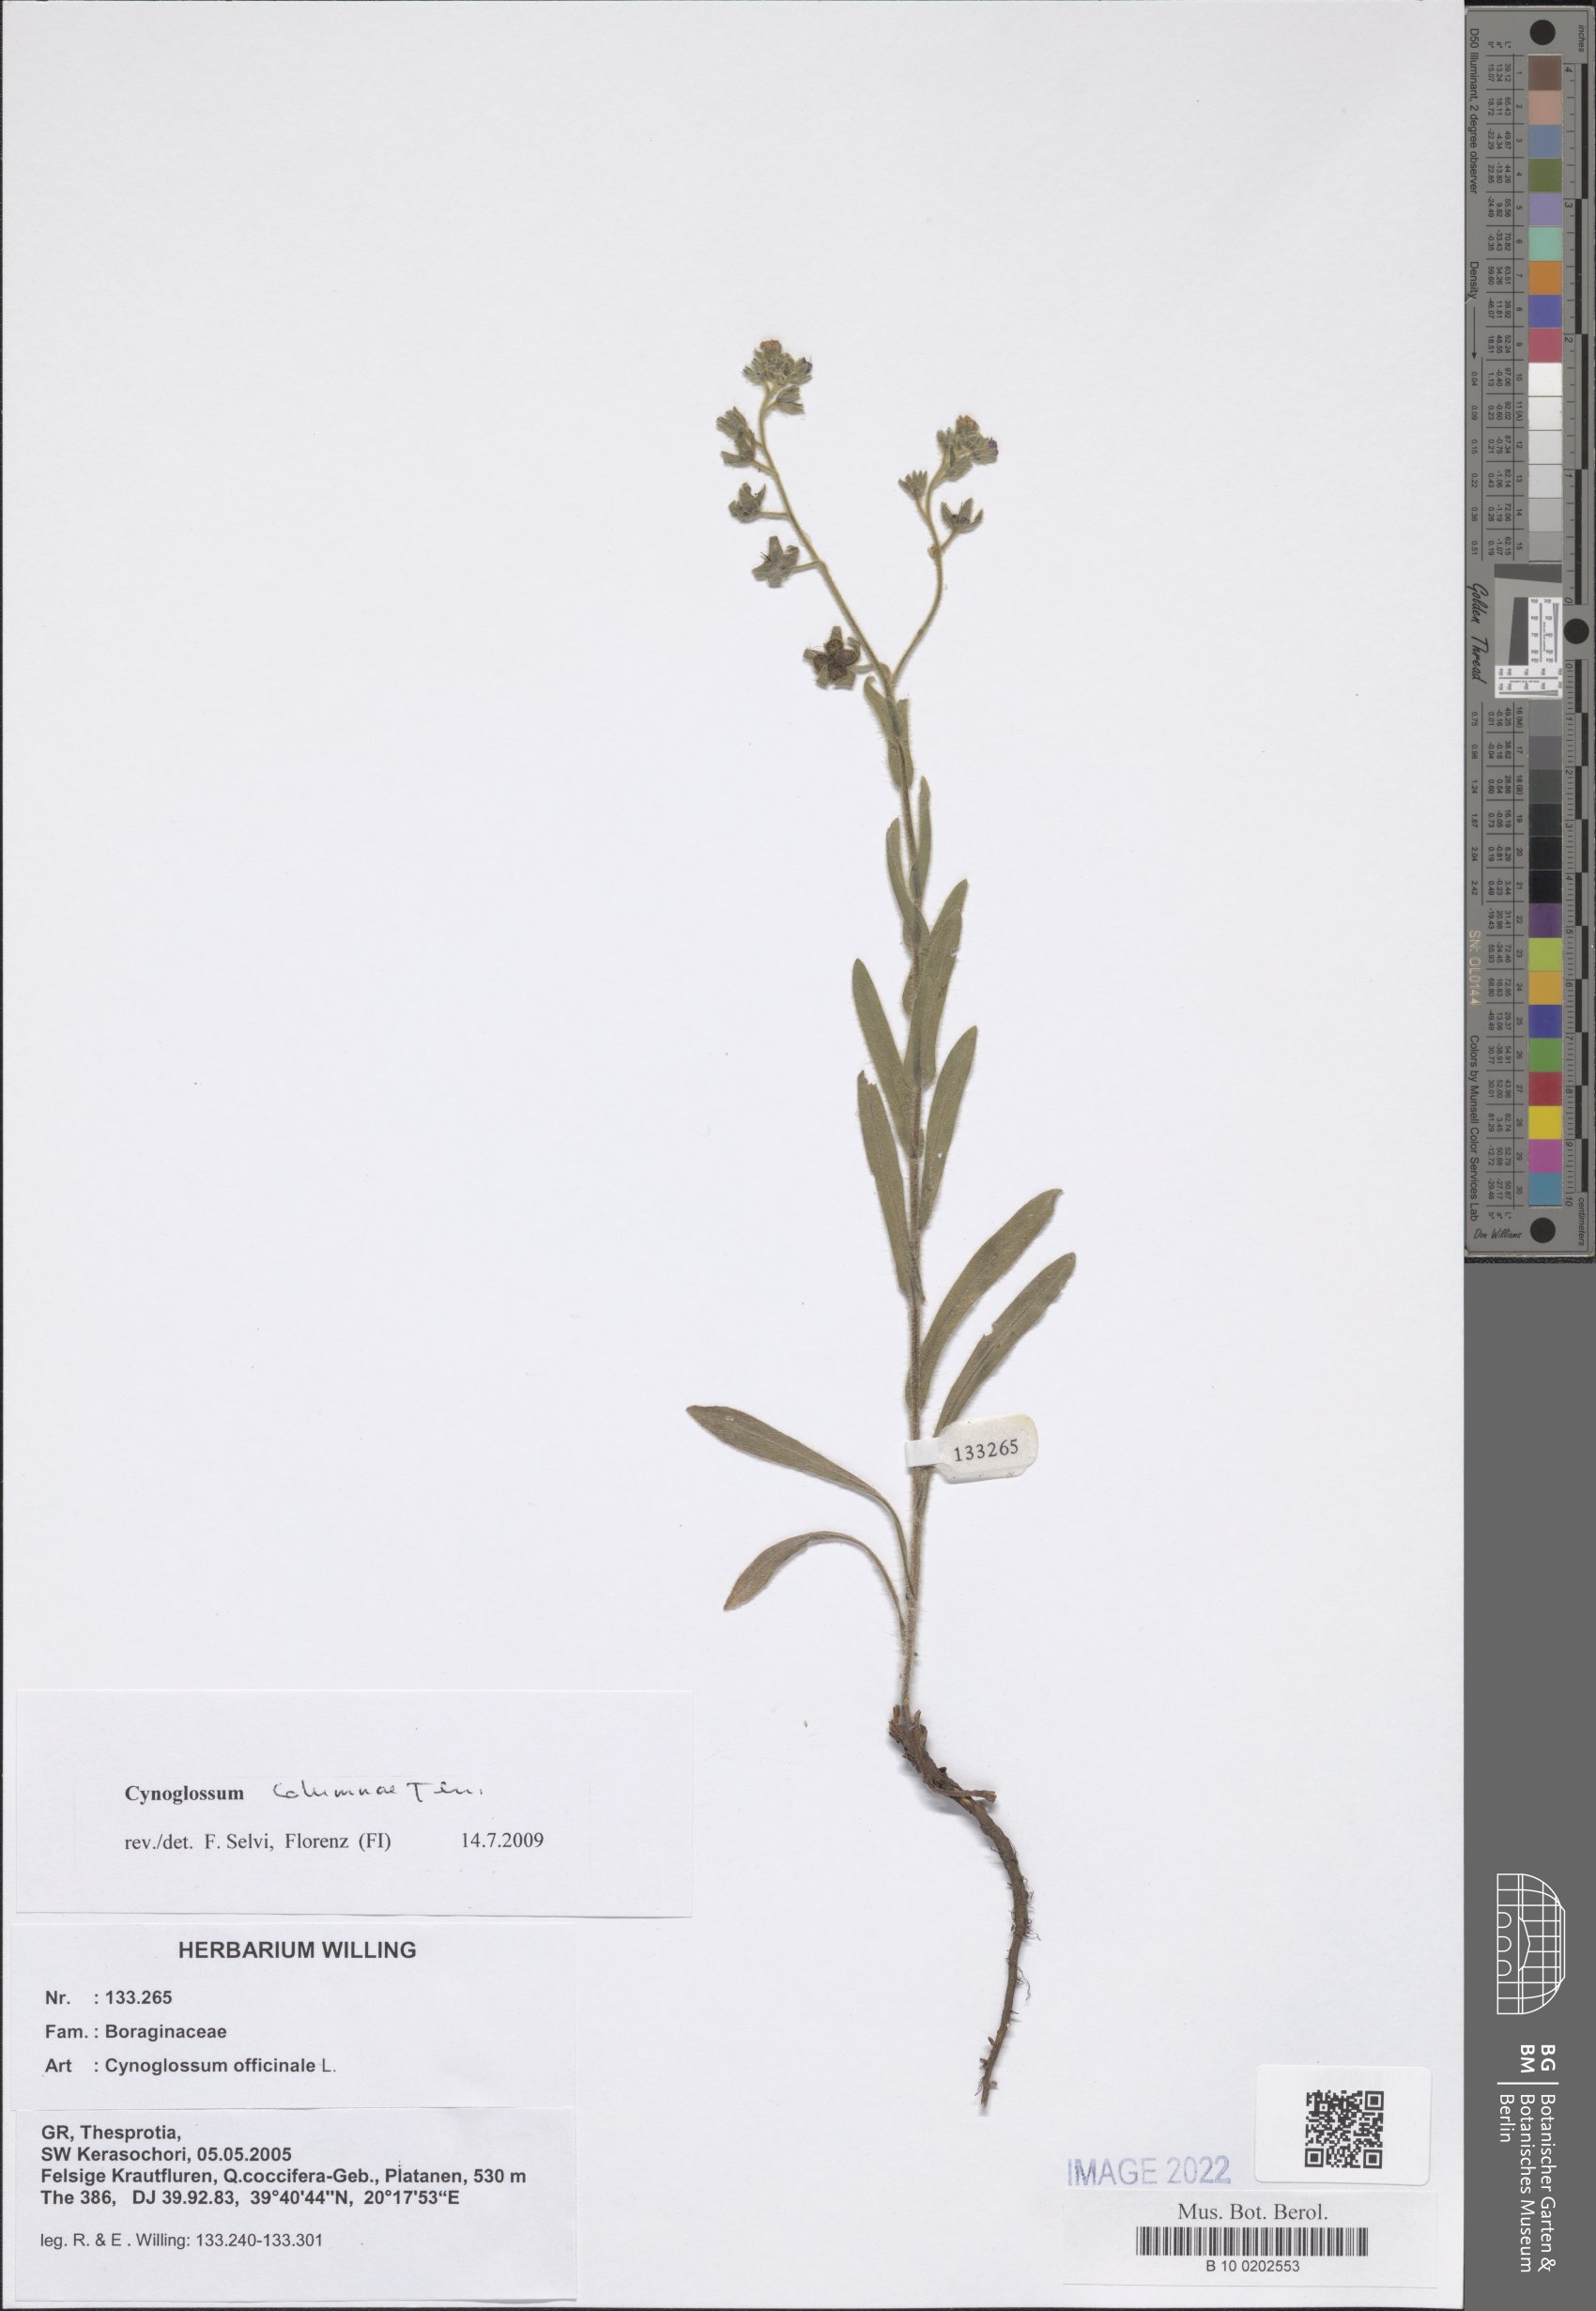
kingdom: Plantae
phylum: Tracheophyta
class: Magnoliopsida
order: Boraginales
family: Boraginaceae
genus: Rindera
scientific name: Rindera columnae
